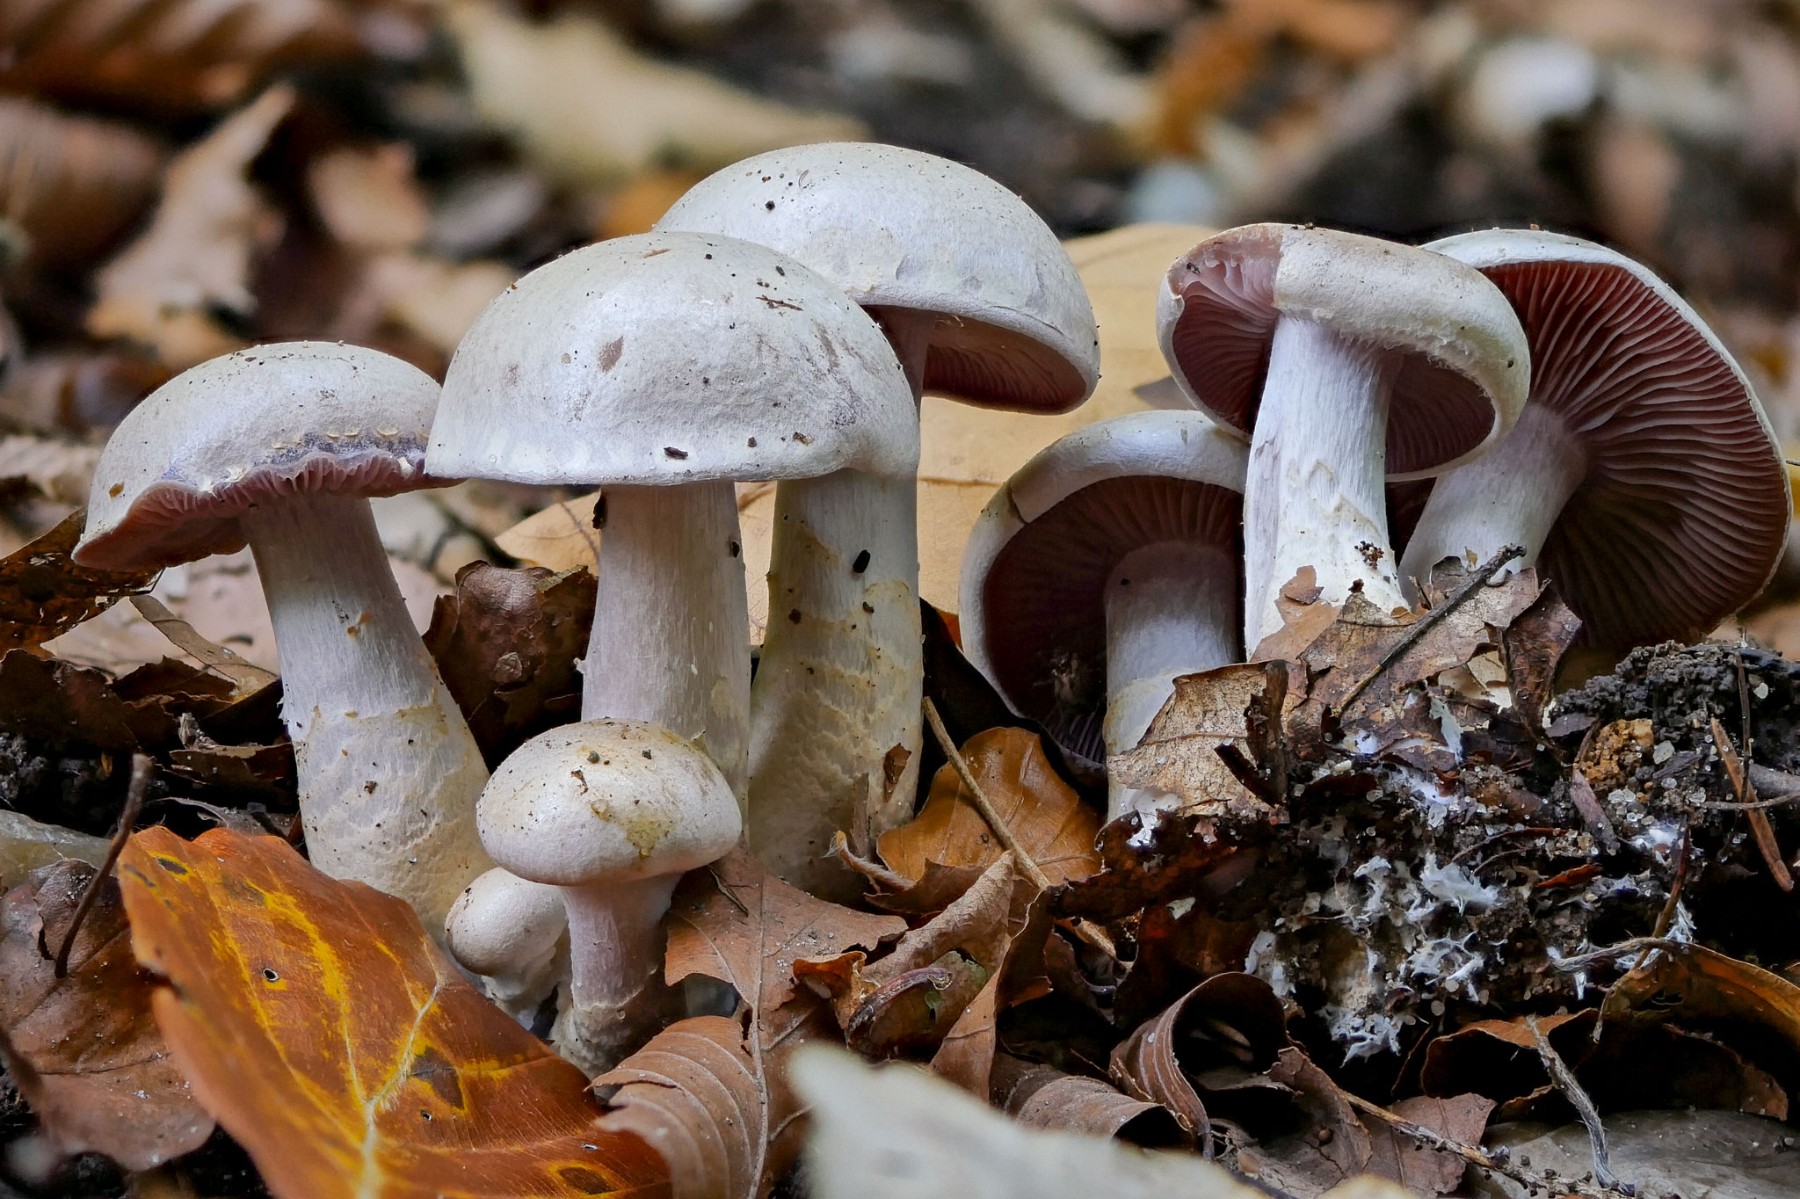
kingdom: Fungi
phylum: Basidiomycota
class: Agaricomycetes
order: Agaricales
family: Cortinariaceae
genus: Cortinarius
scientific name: Cortinarius
